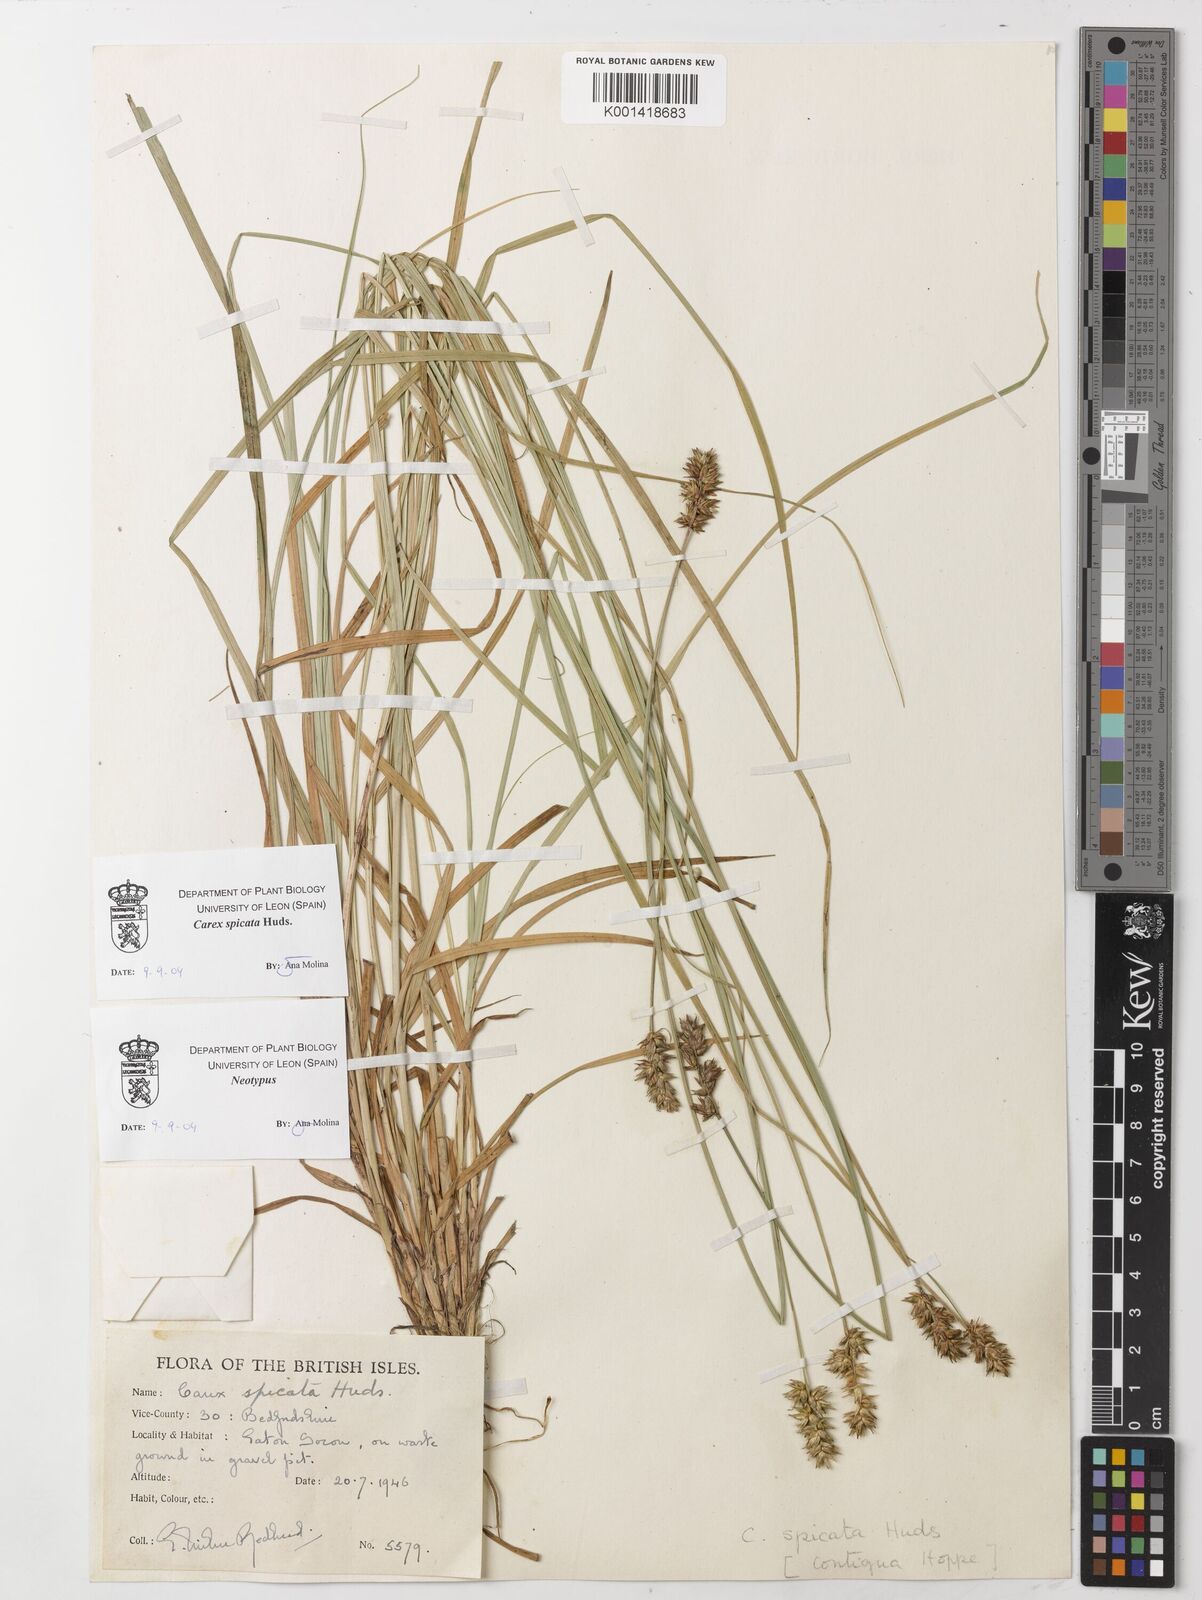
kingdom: Plantae
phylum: Tracheophyta
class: Liliopsida
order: Poales
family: Cyperaceae
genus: Carex
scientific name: Carex spicata
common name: Spiked sedge
